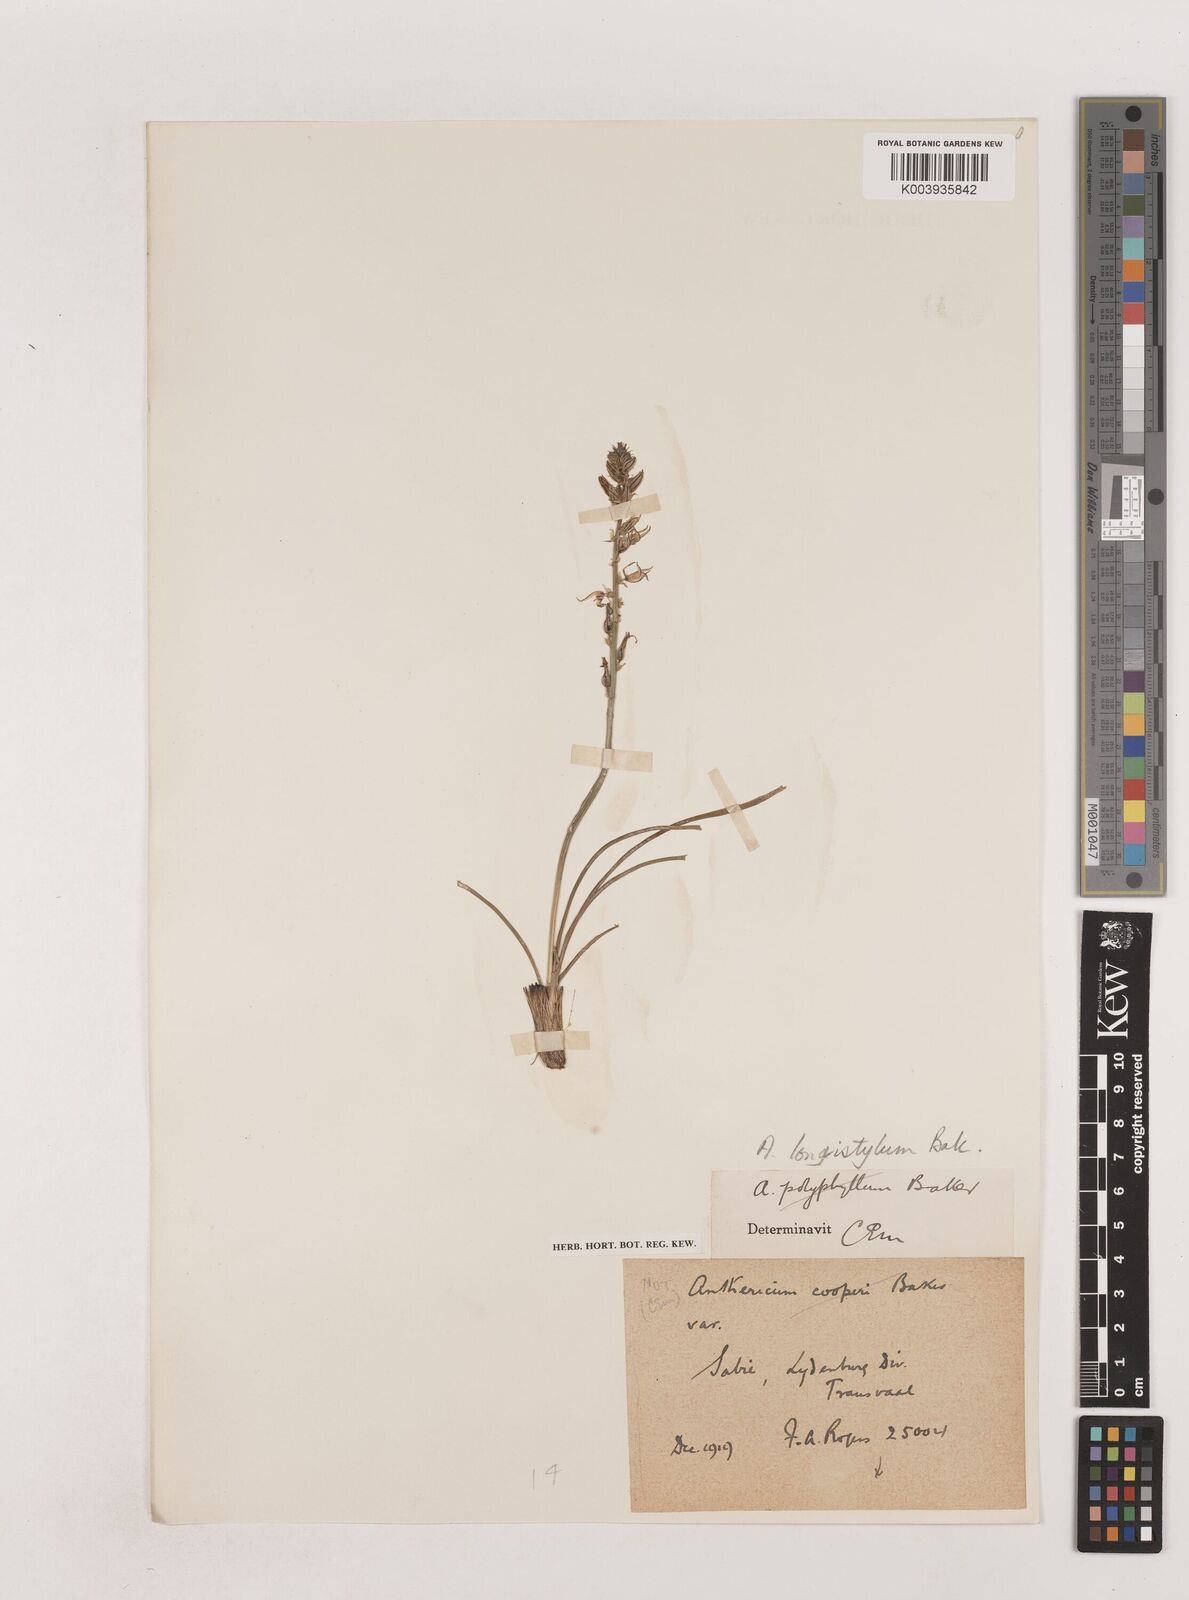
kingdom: Plantae
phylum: Tracheophyta
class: Liliopsida
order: Asparagales
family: Asparagaceae
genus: Chlorophytum
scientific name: Chlorophytum recurvifolium
